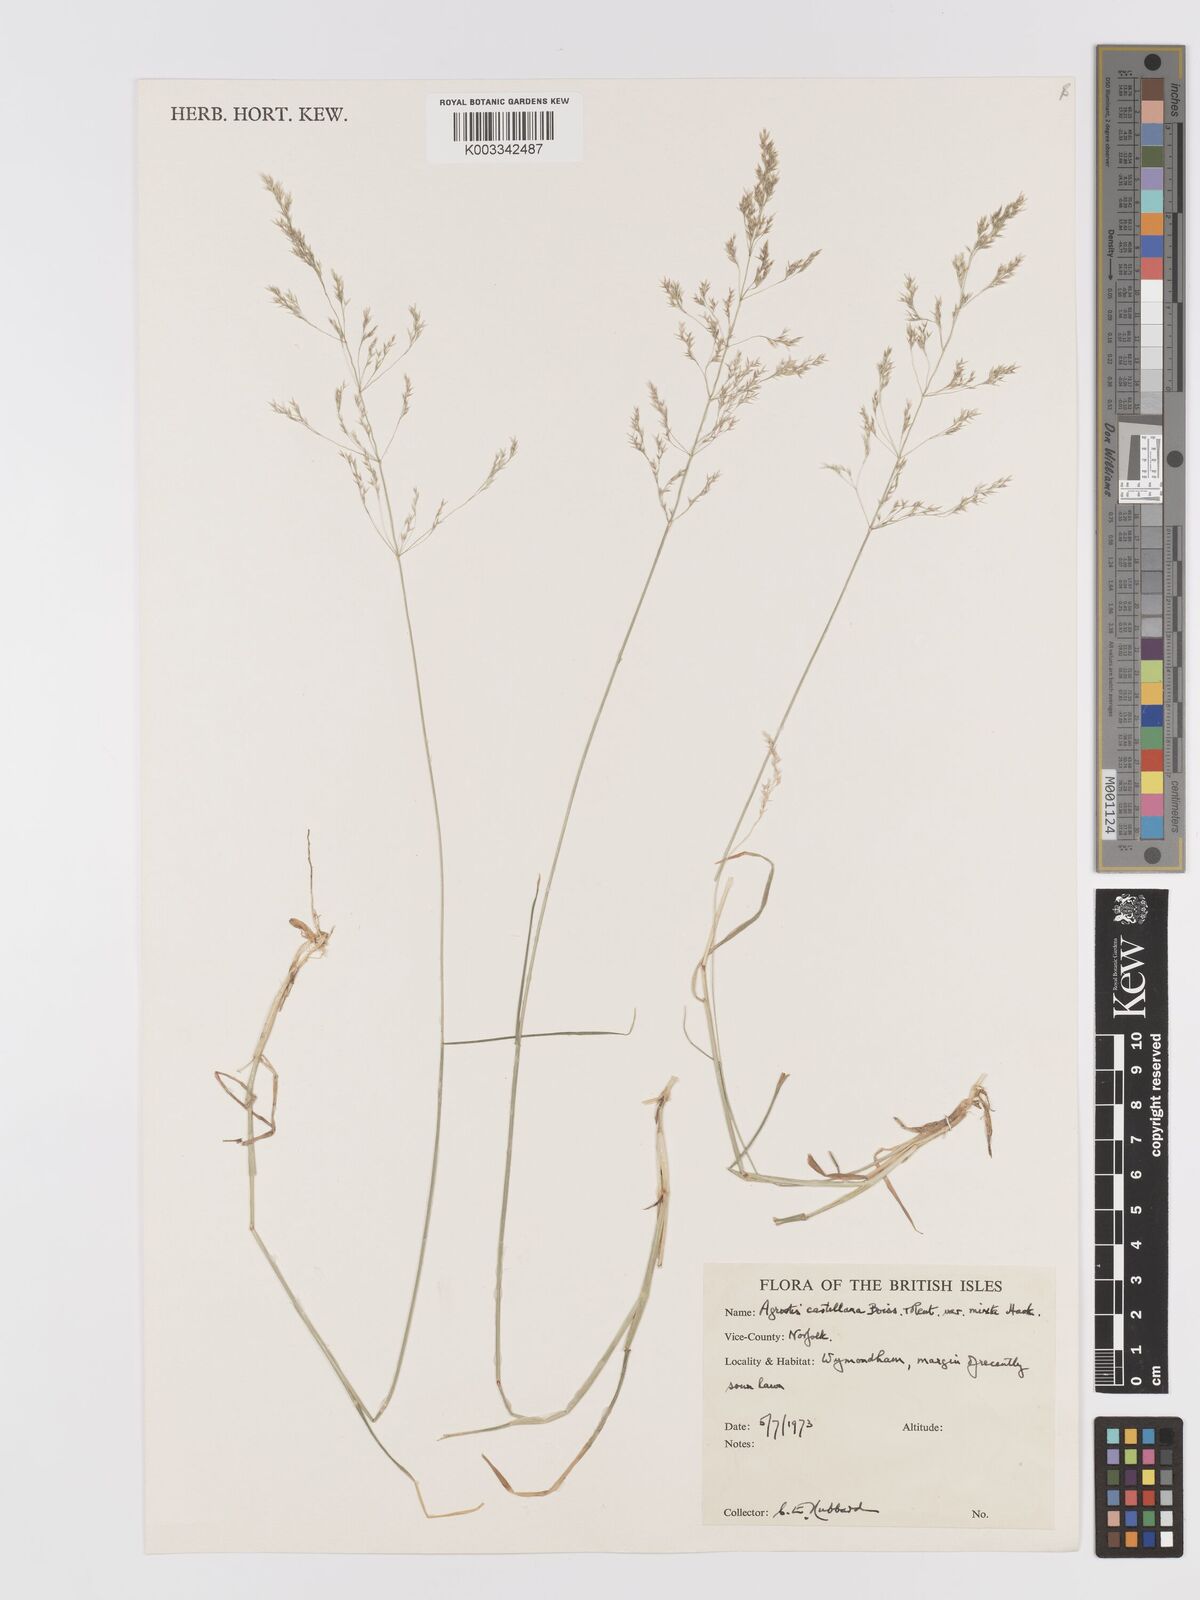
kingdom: Plantae
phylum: Tracheophyta
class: Liliopsida
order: Poales
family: Poaceae
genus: Agrostis
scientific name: Agrostis castellana
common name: Highland bent
